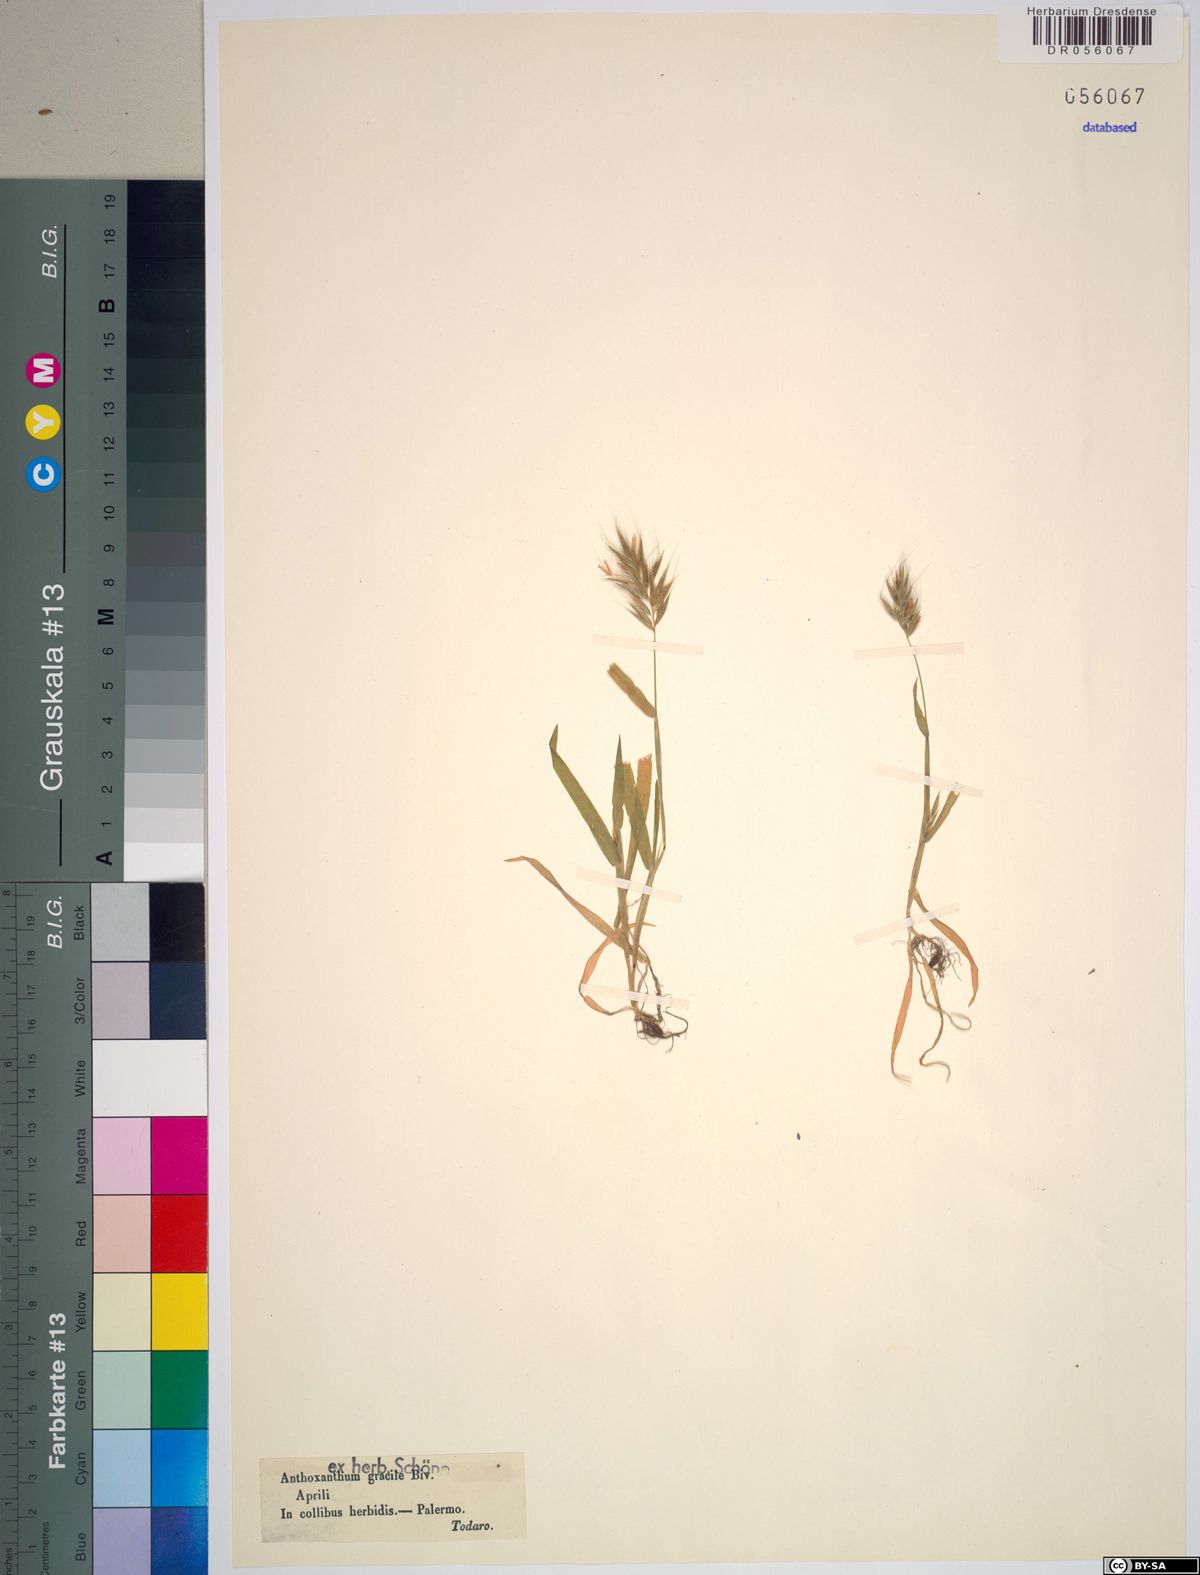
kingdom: Plantae
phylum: Tracheophyta
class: Liliopsida
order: Poales
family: Poaceae
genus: Anthoxanthum
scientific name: Anthoxanthum gracile
